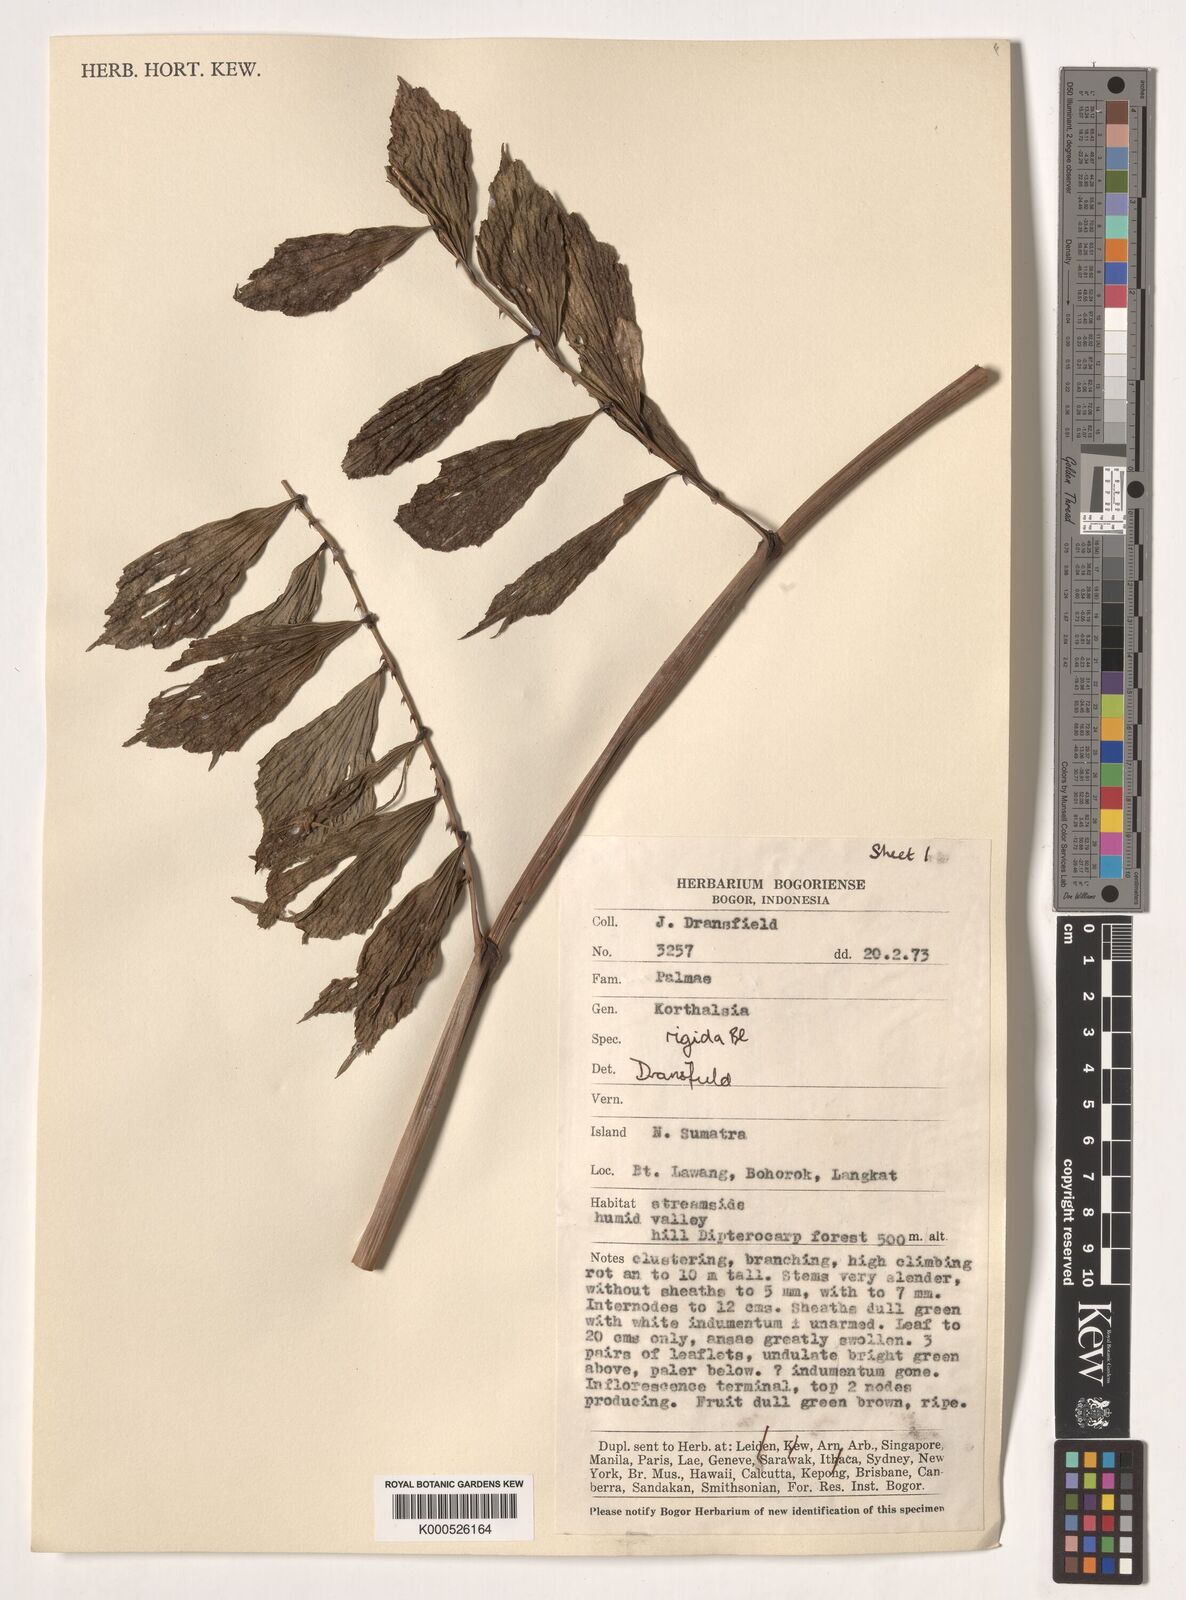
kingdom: Plantae
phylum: Tracheophyta
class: Liliopsida
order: Arecales
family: Arecaceae
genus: Korthalsia
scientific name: Korthalsia rigida
